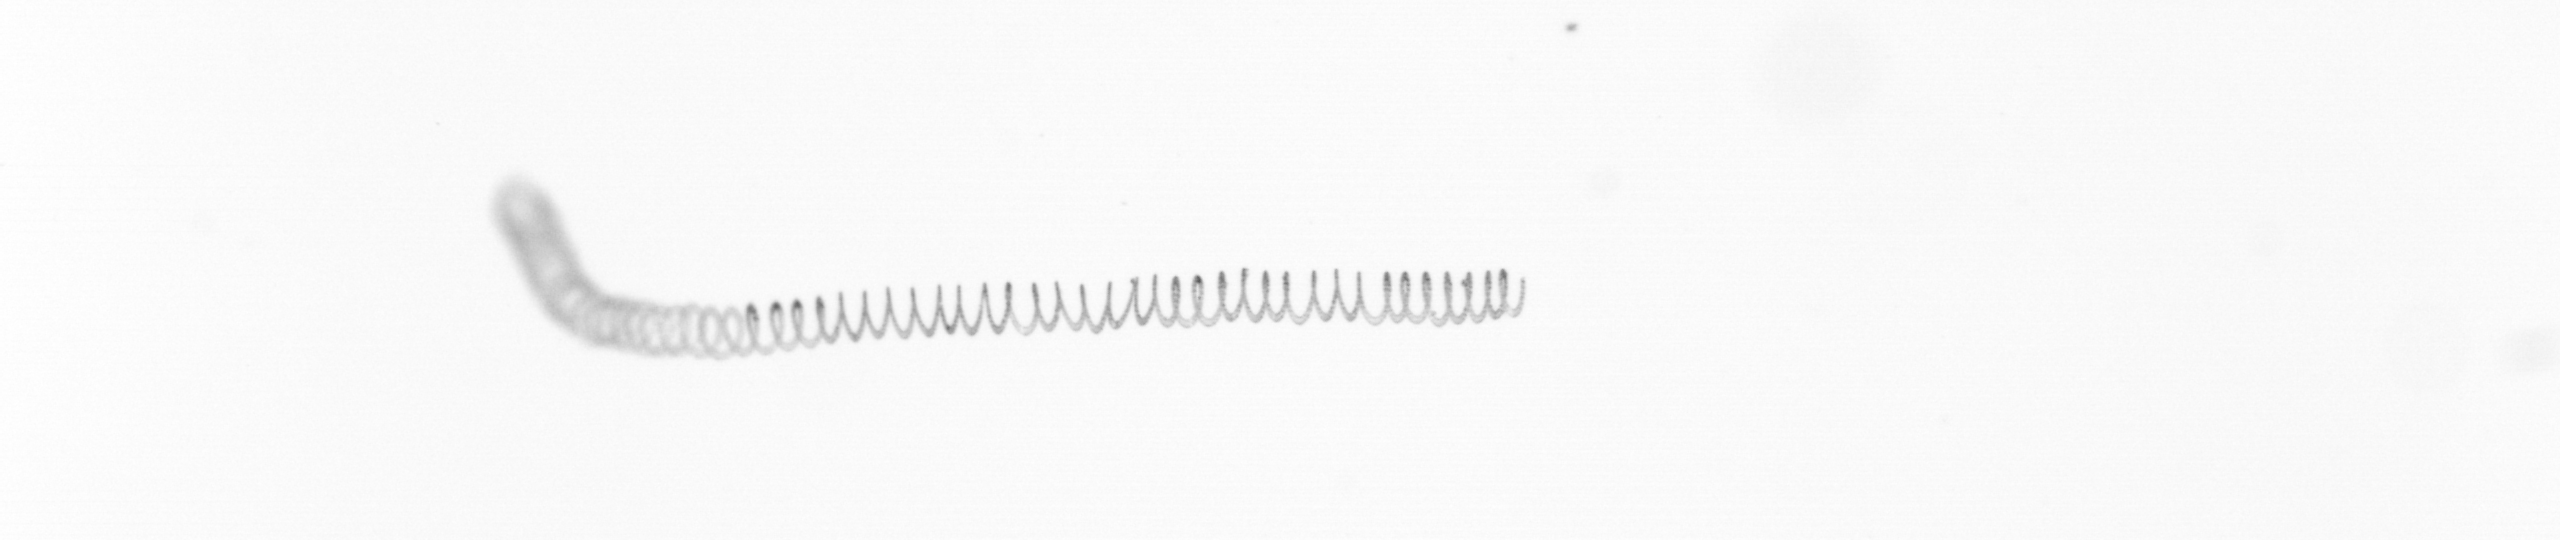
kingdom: Chromista
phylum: Ochrophyta
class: Bacillariophyceae
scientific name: Bacillariophyceae
